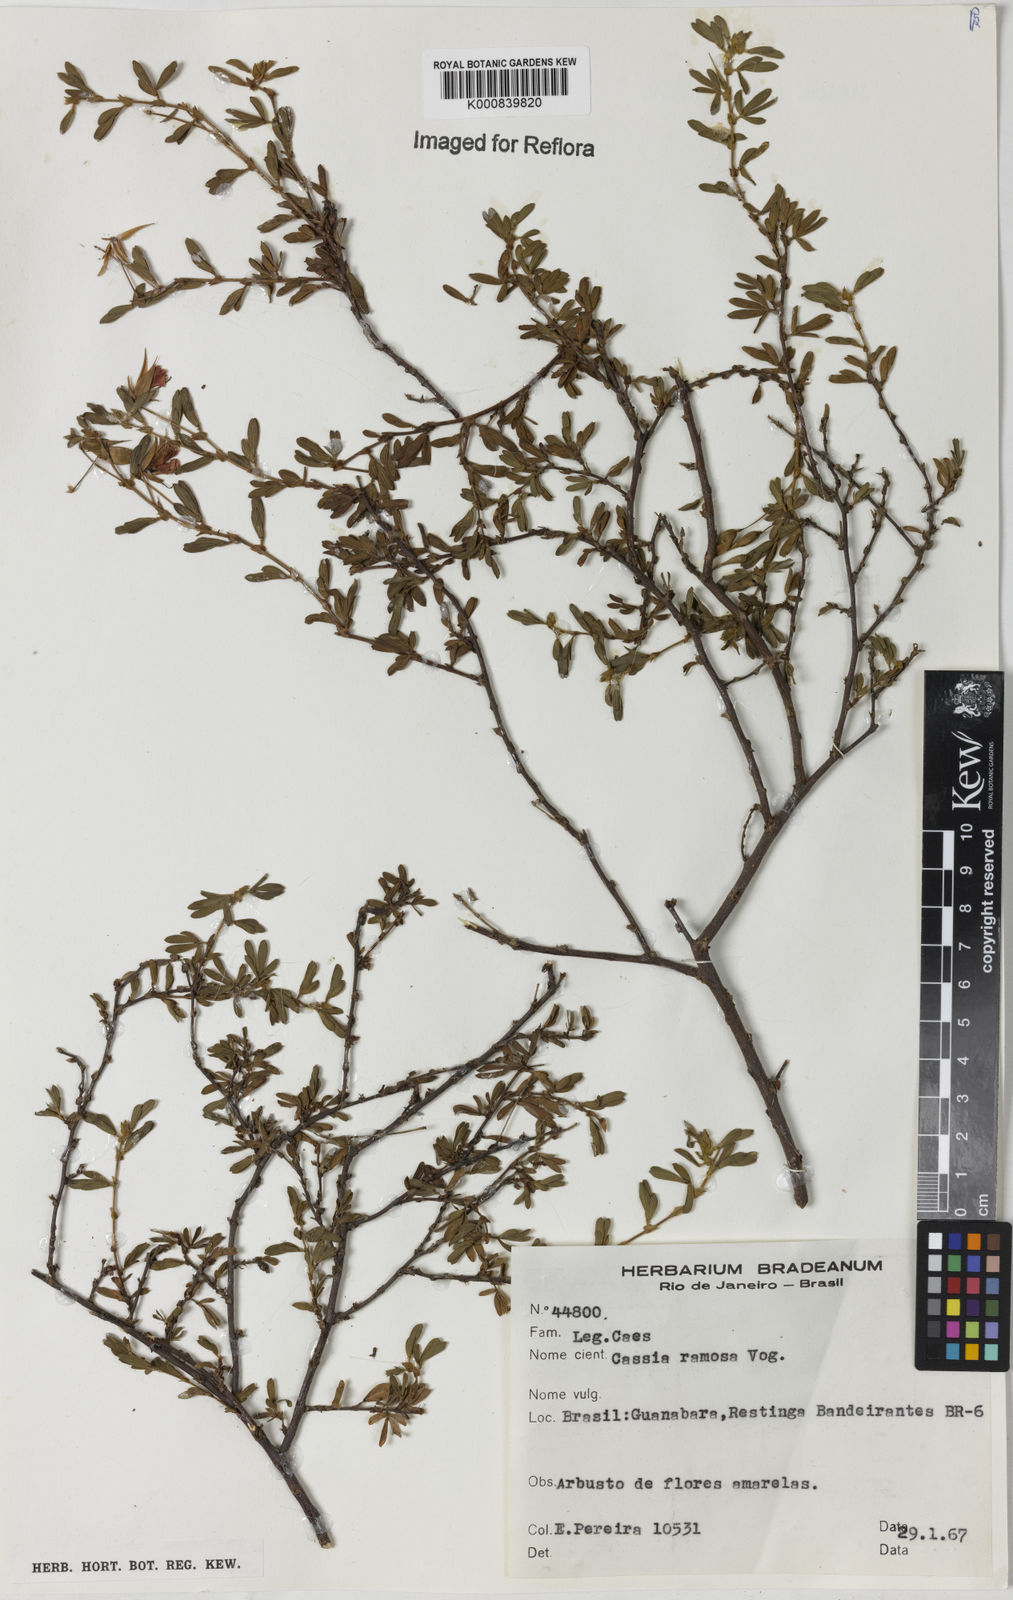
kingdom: Plantae
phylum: Tracheophyta
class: Magnoliopsida
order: Fabales
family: Fabaceae
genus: Chamaecrista
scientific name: Chamaecrista ramosa
